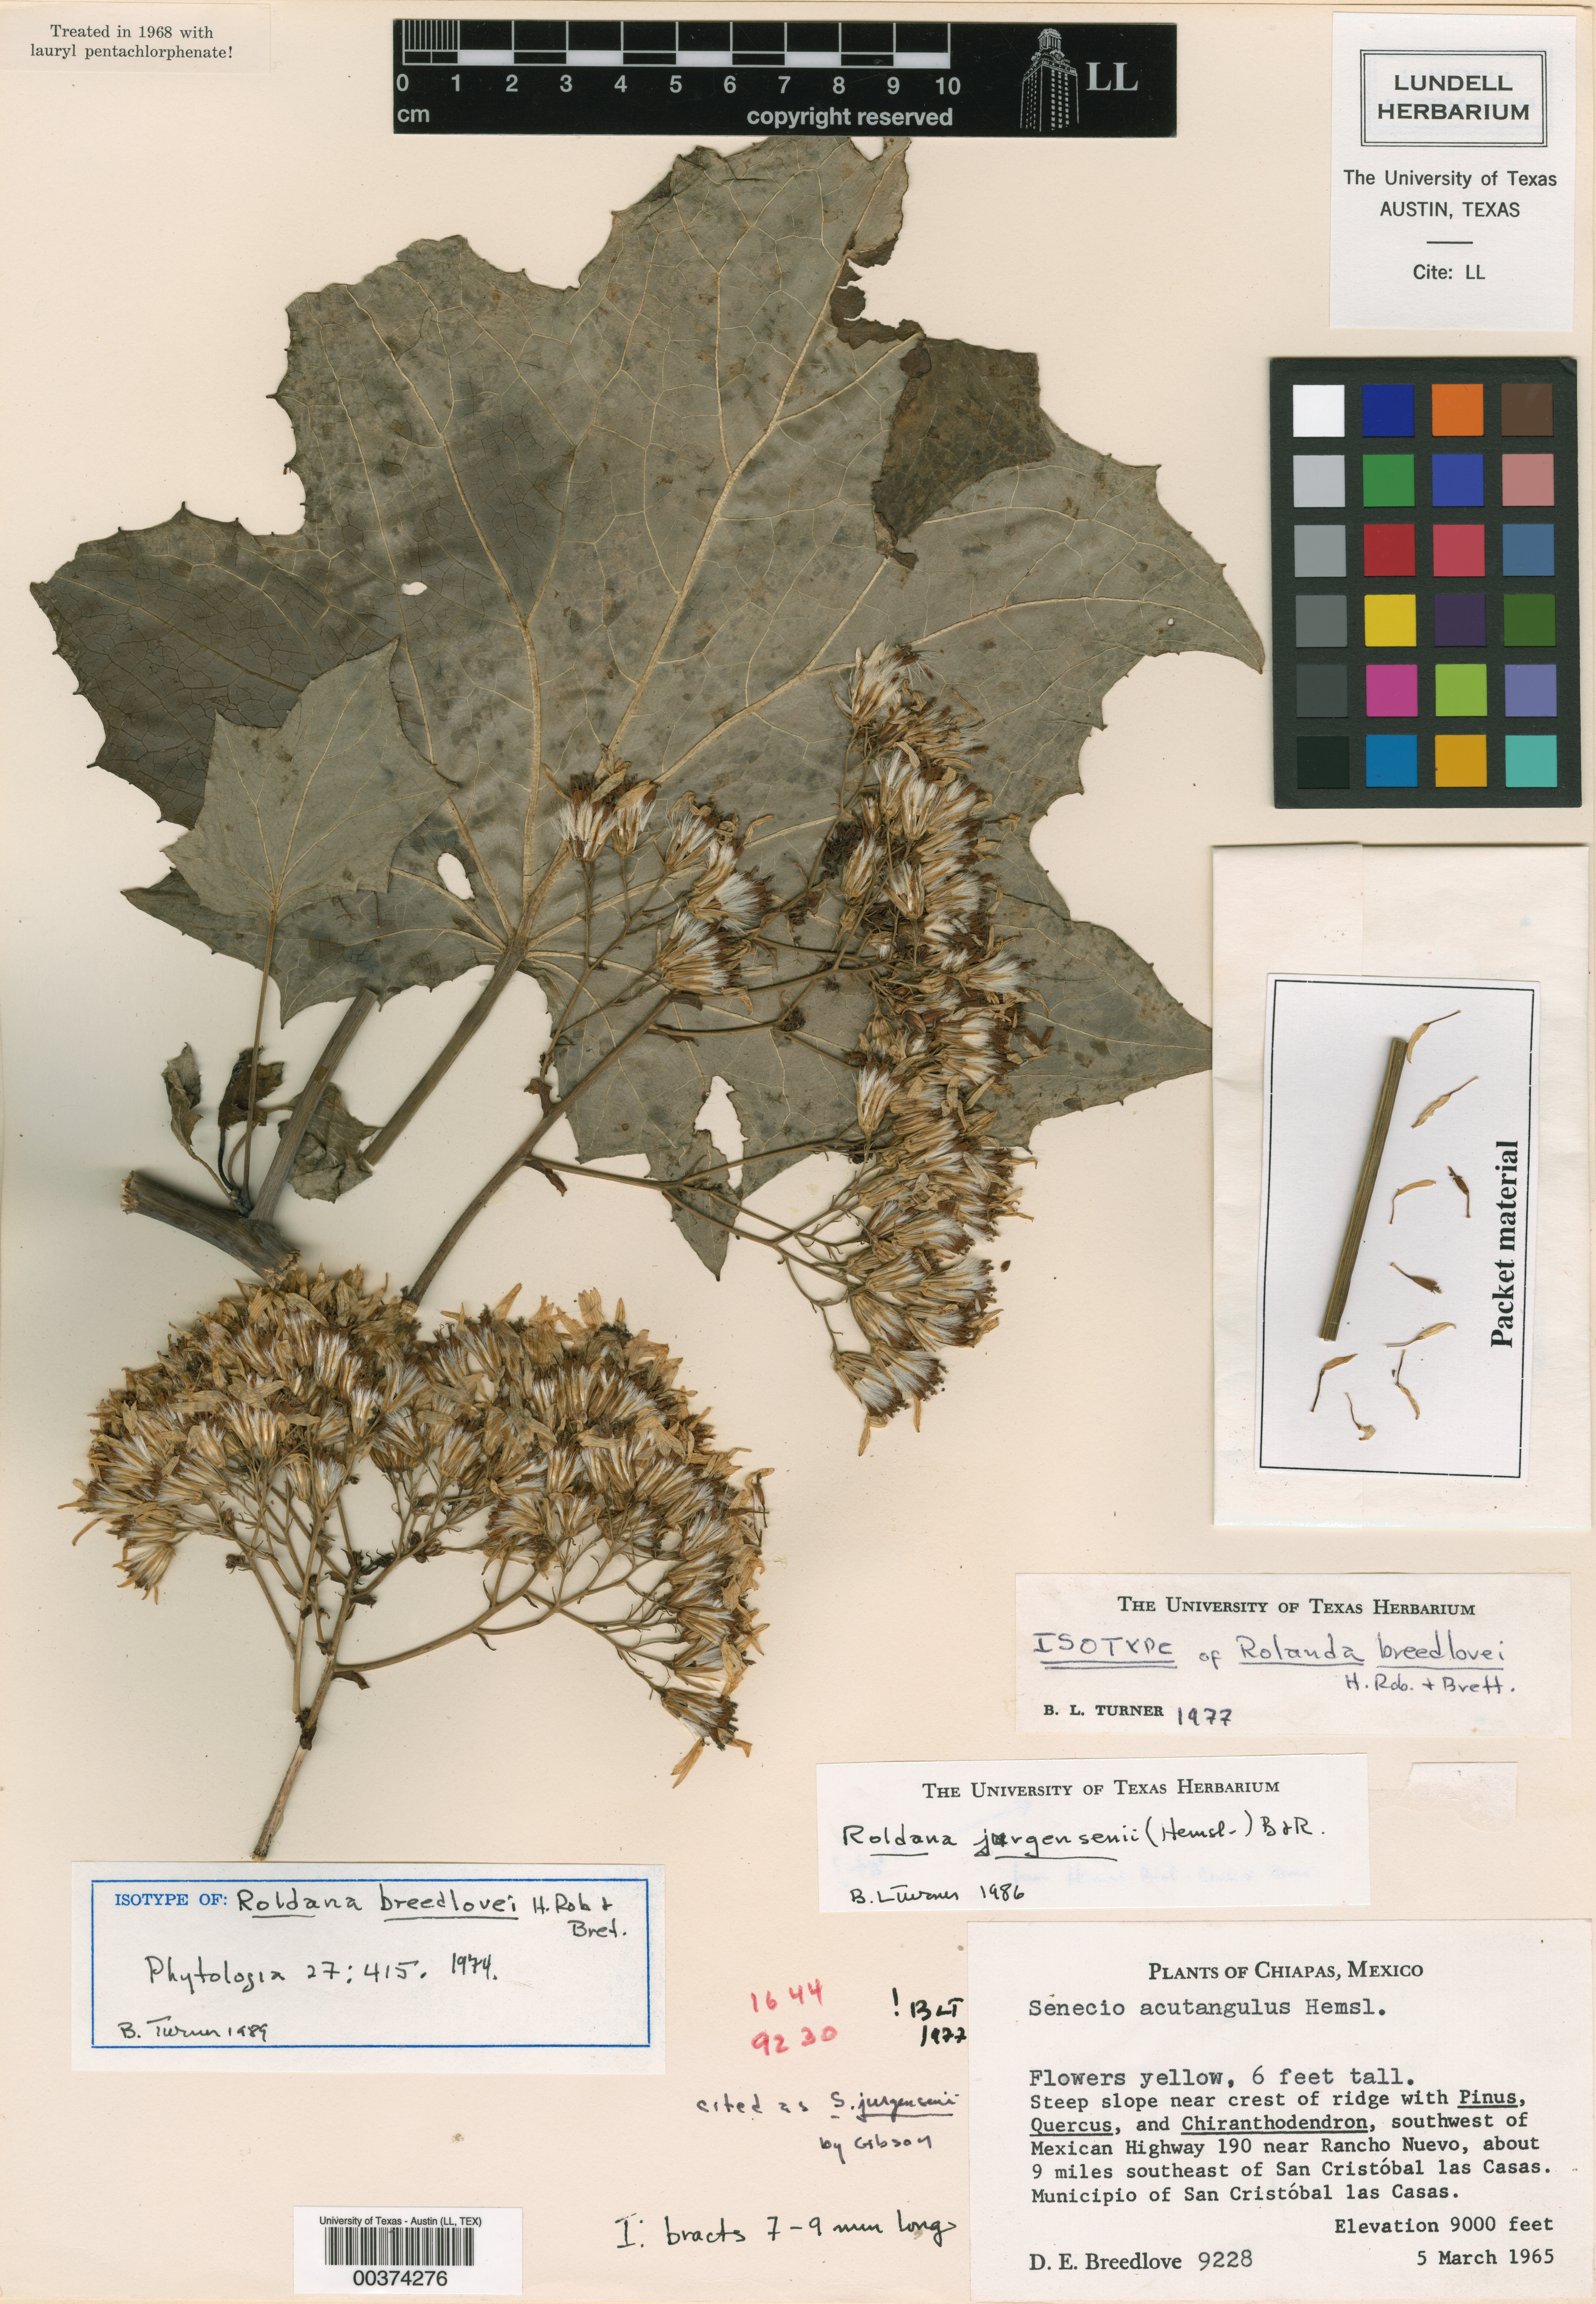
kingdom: Plantae
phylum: Tracheophyta
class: Magnoliopsida
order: Asterales
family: Asteraceae
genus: Roldana
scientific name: Roldana jurgensenii
